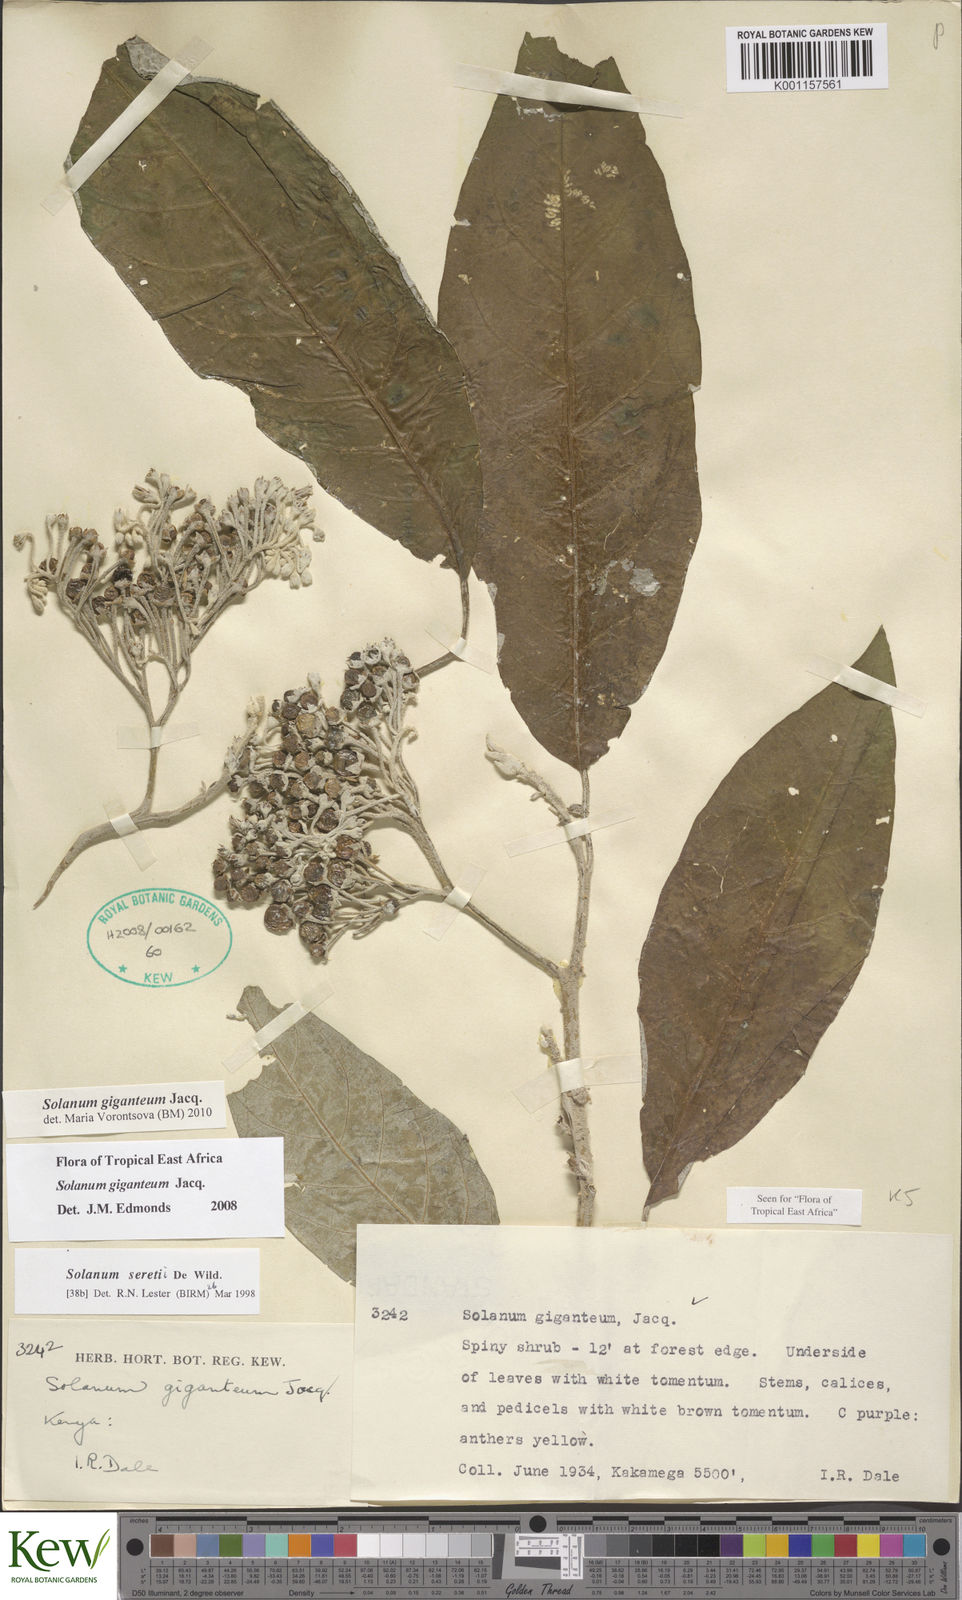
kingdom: Plantae
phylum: Tracheophyta
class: Magnoliopsida
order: Solanales
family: Solanaceae
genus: Solanum
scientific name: Solanum giganteum
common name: Healing-leaf-tree
